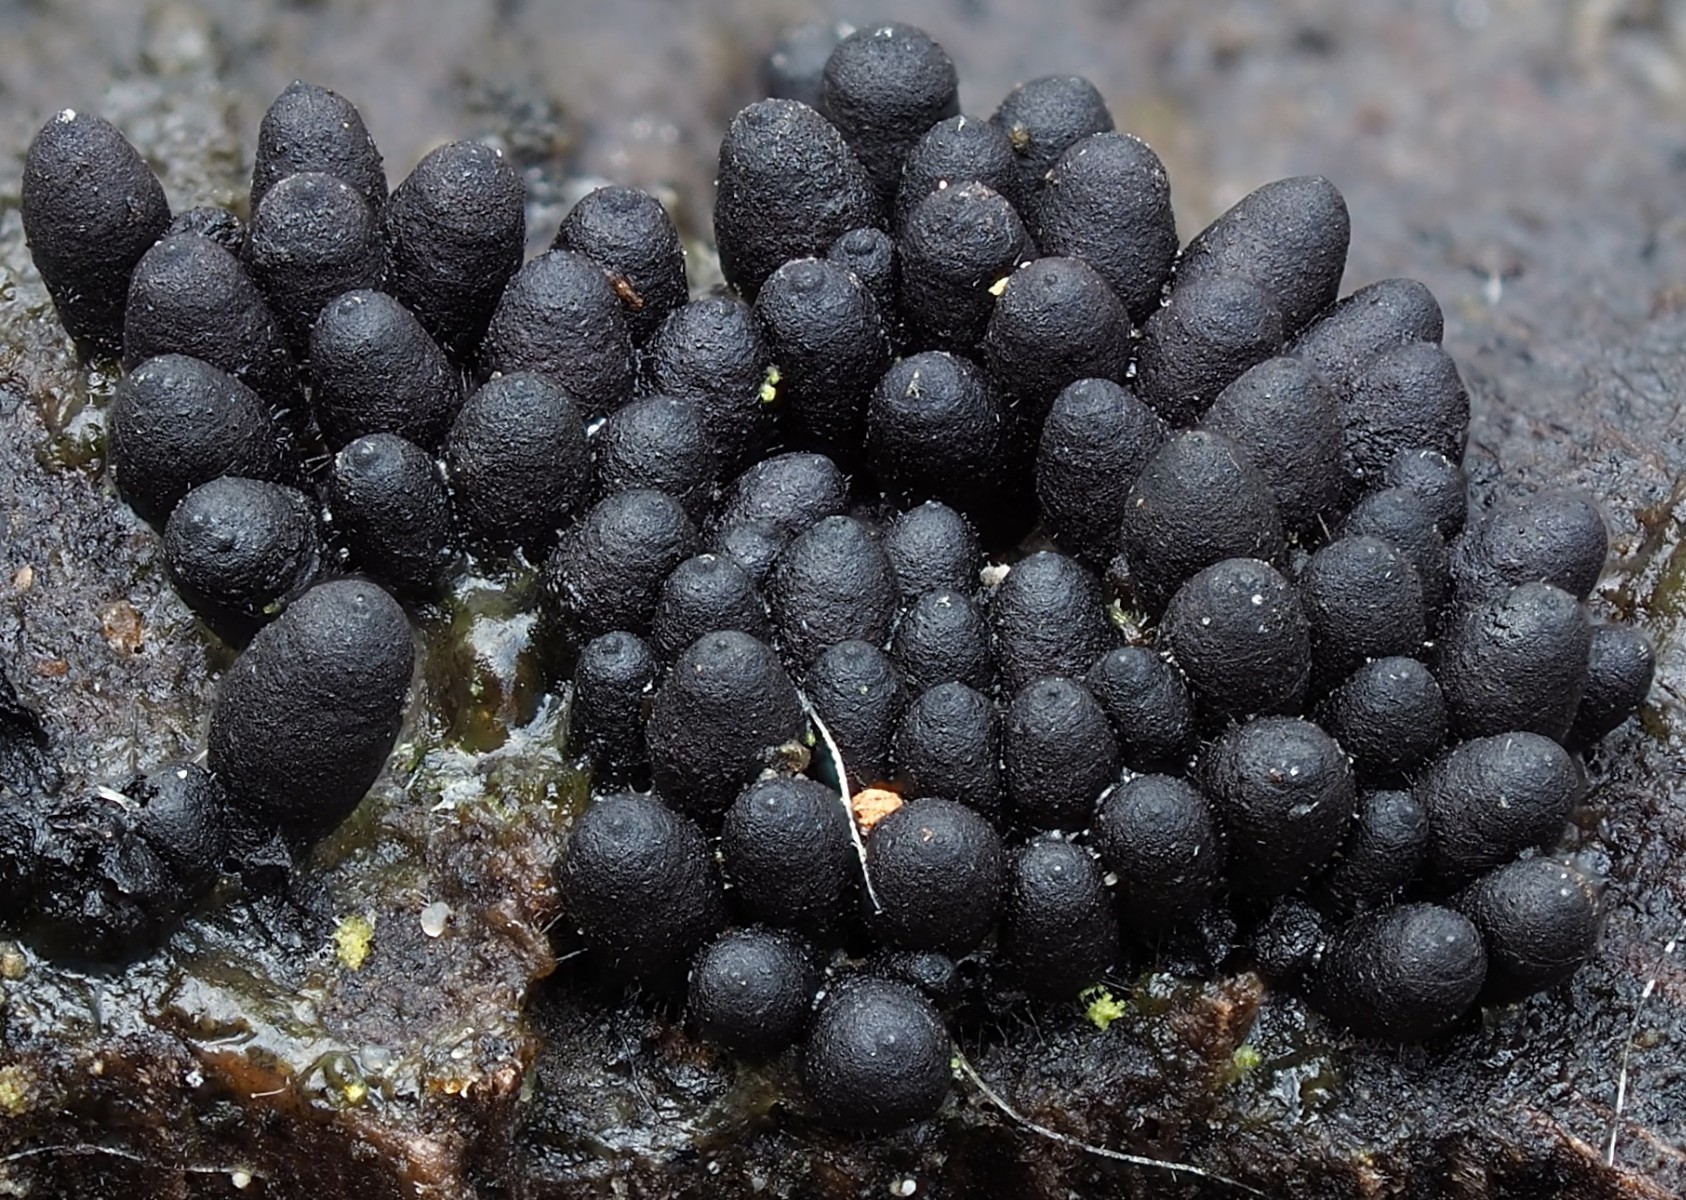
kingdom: Fungi
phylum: Ascomycota
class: Sordariomycetes
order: Sordariales
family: Bombardiaceae
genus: Bombardia
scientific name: Bombardia bombarda
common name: lædersæk-kernesvamp
